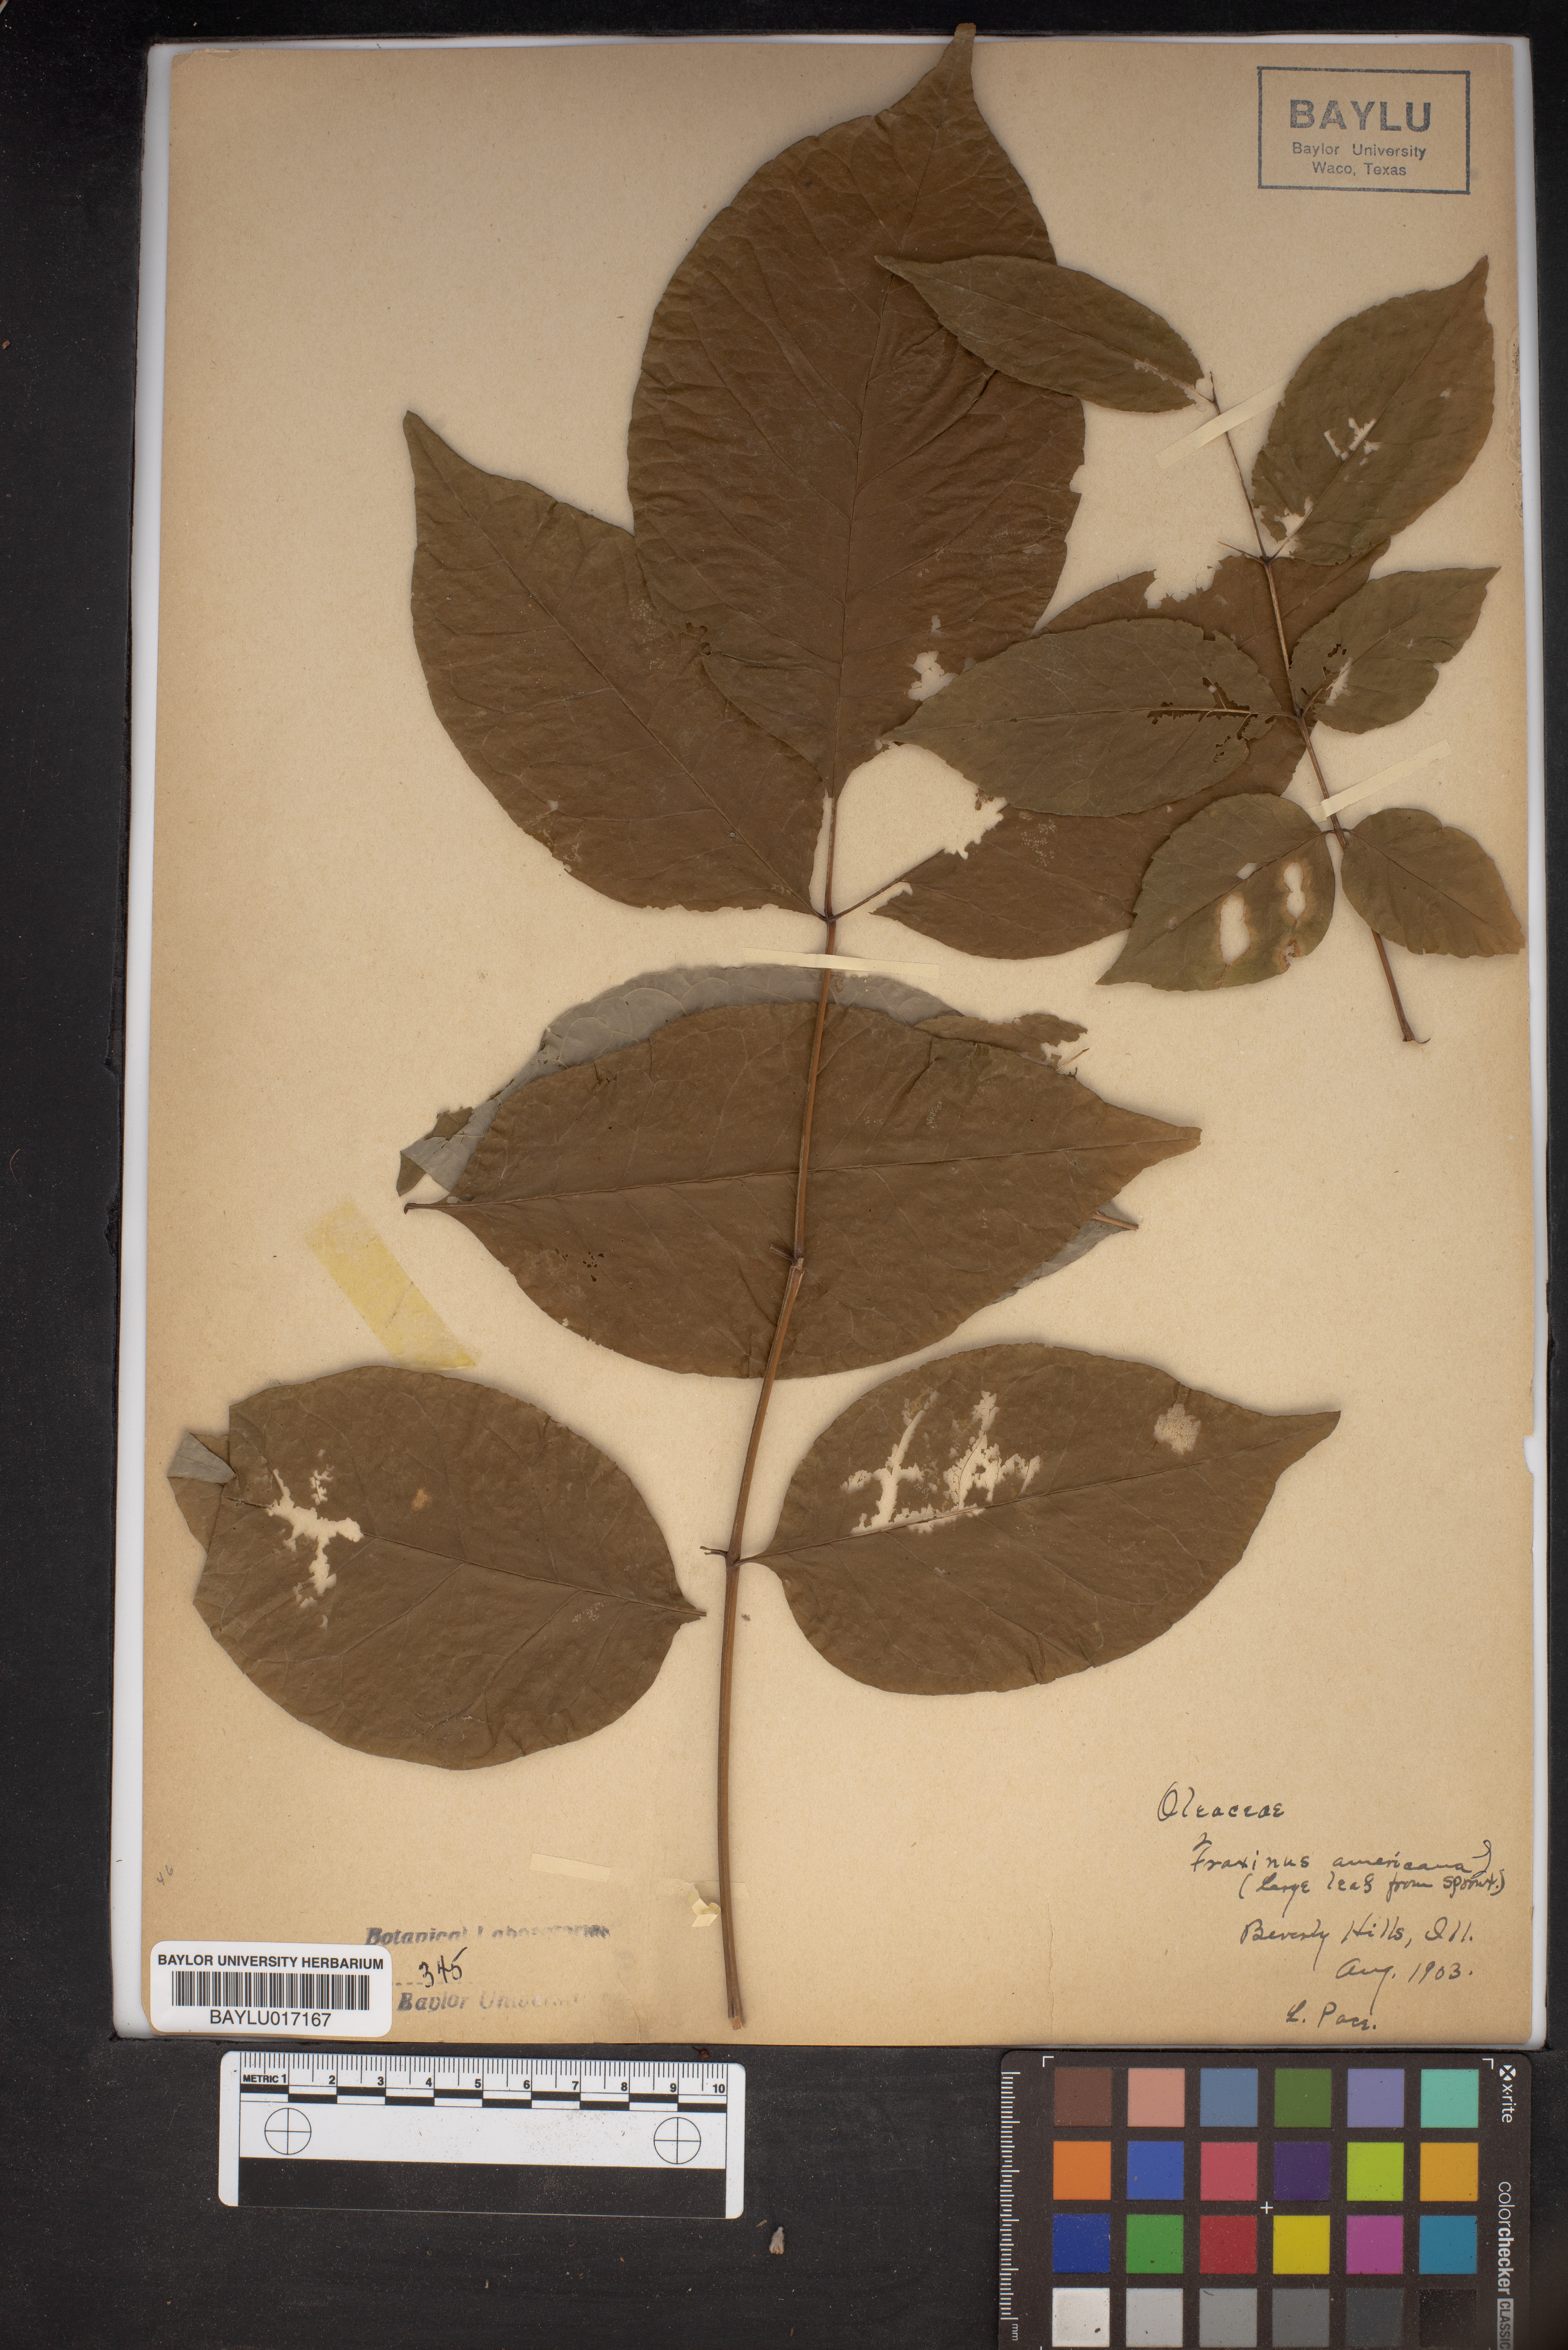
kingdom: Plantae
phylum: Tracheophyta
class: Magnoliopsida
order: Lamiales
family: Oleaceae
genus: Fraxinus
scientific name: Fraxinus americana
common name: White ash
